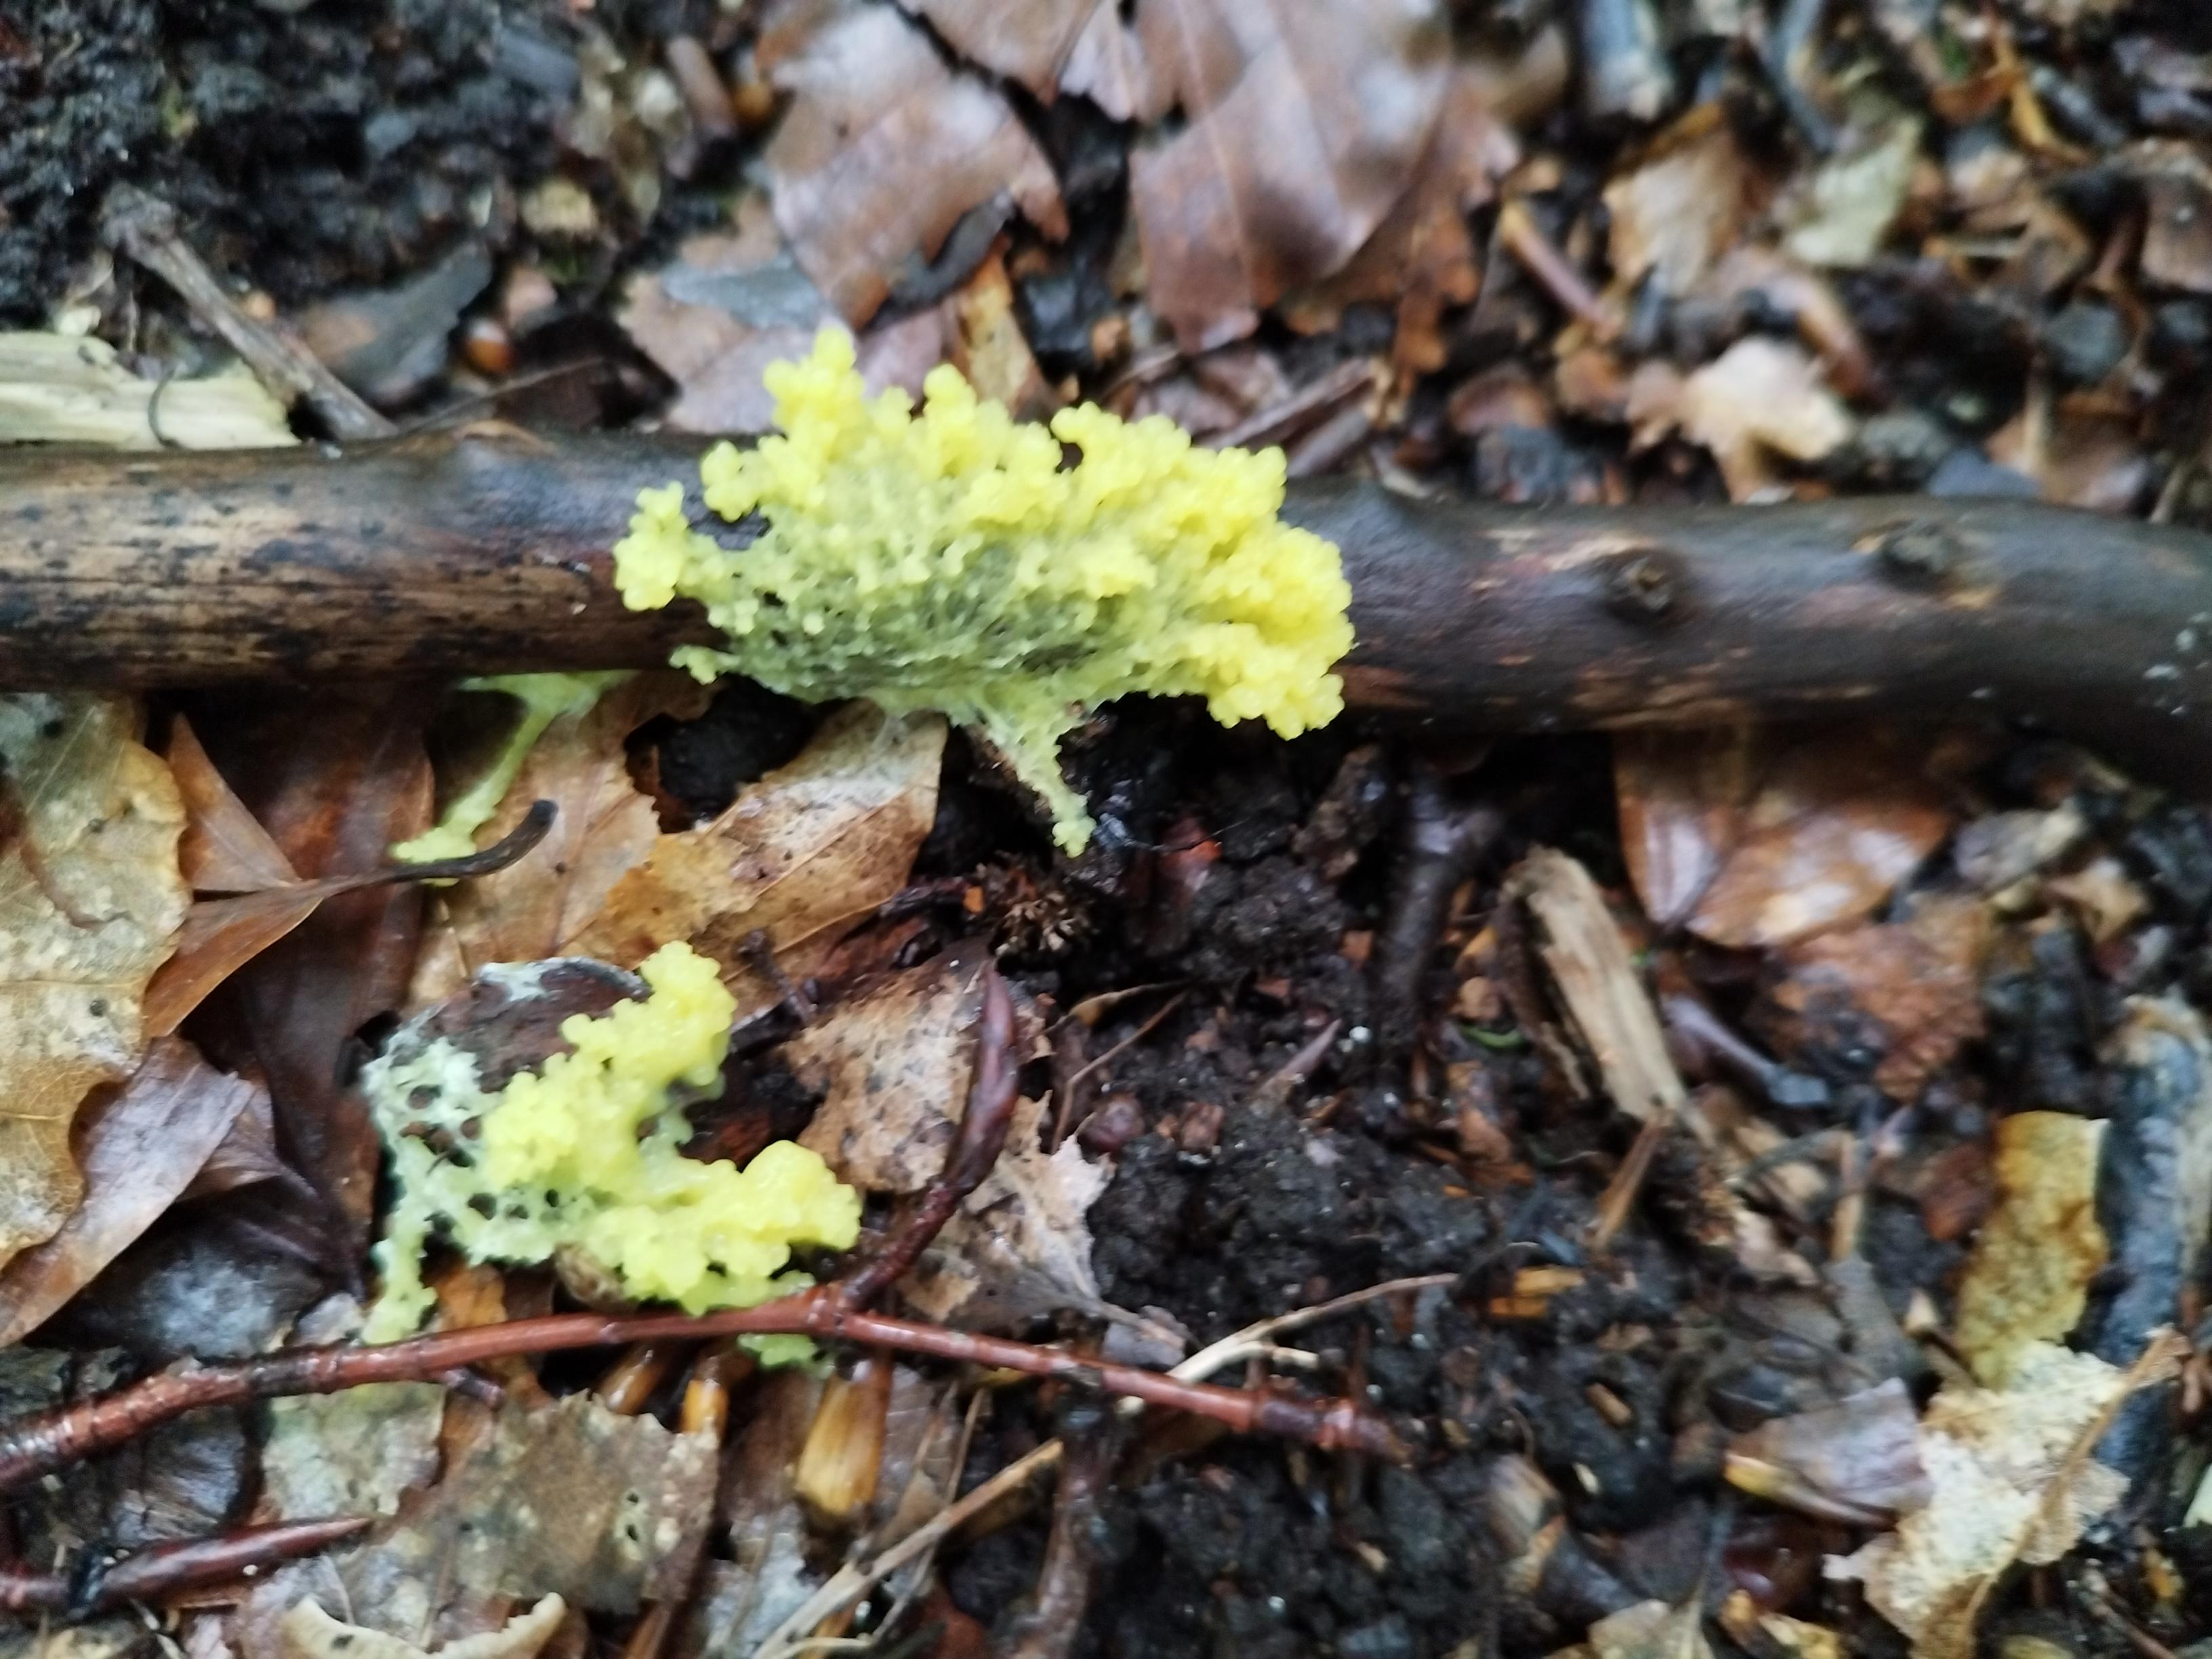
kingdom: Protozoa
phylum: Mycetozoa
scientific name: Mycetozoa
